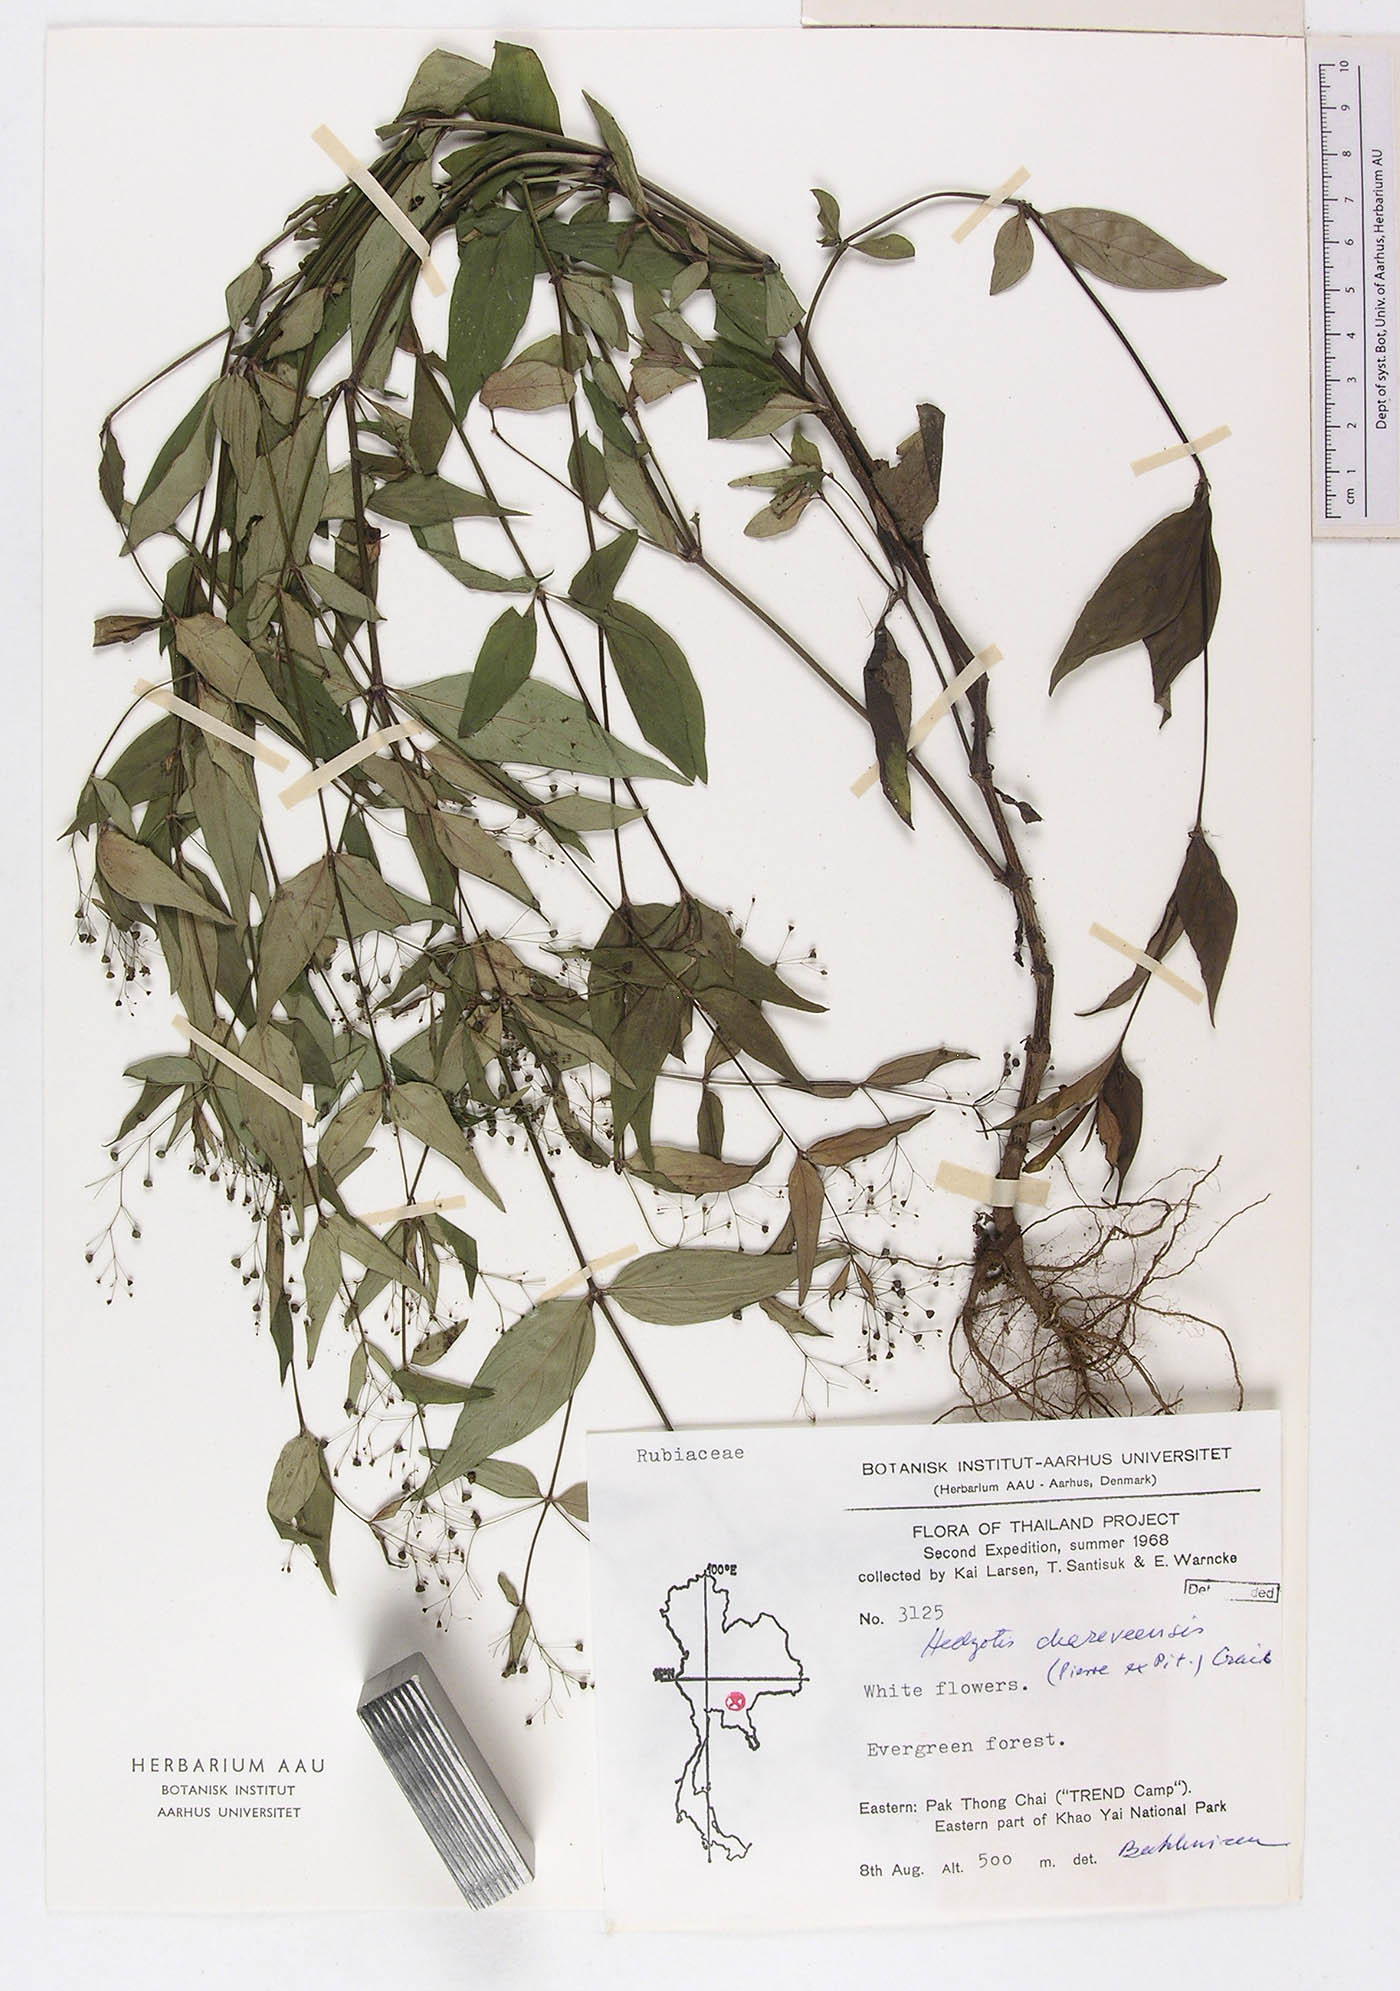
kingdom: Plantae
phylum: Tracheophyta
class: Magnoliopsida
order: Gentianales
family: Rubiaceae
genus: Involucrella
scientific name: Involucrella chereevensis
